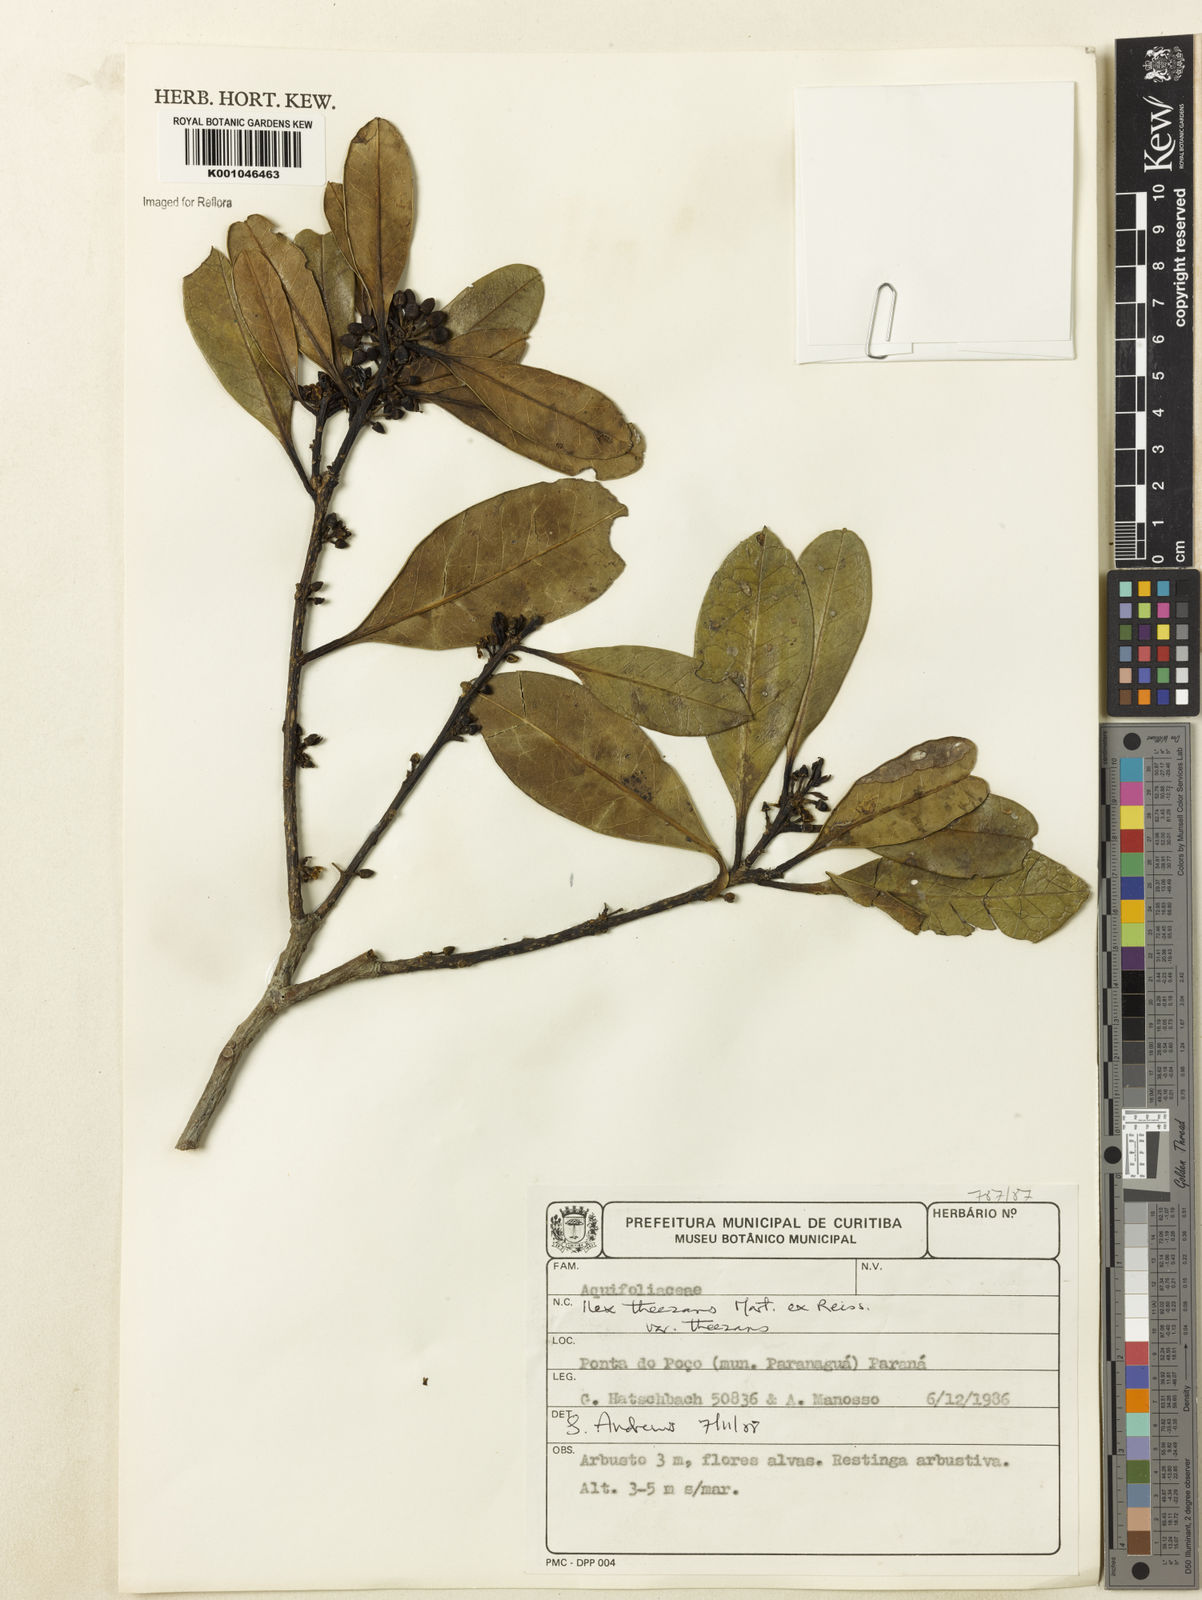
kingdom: Plantae
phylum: Tracheophyta
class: Magnoliopsida
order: Aquifoliales
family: Aquifoliaceae
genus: Ilex
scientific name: Ilex paraguariensis
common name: Paraguay tea
